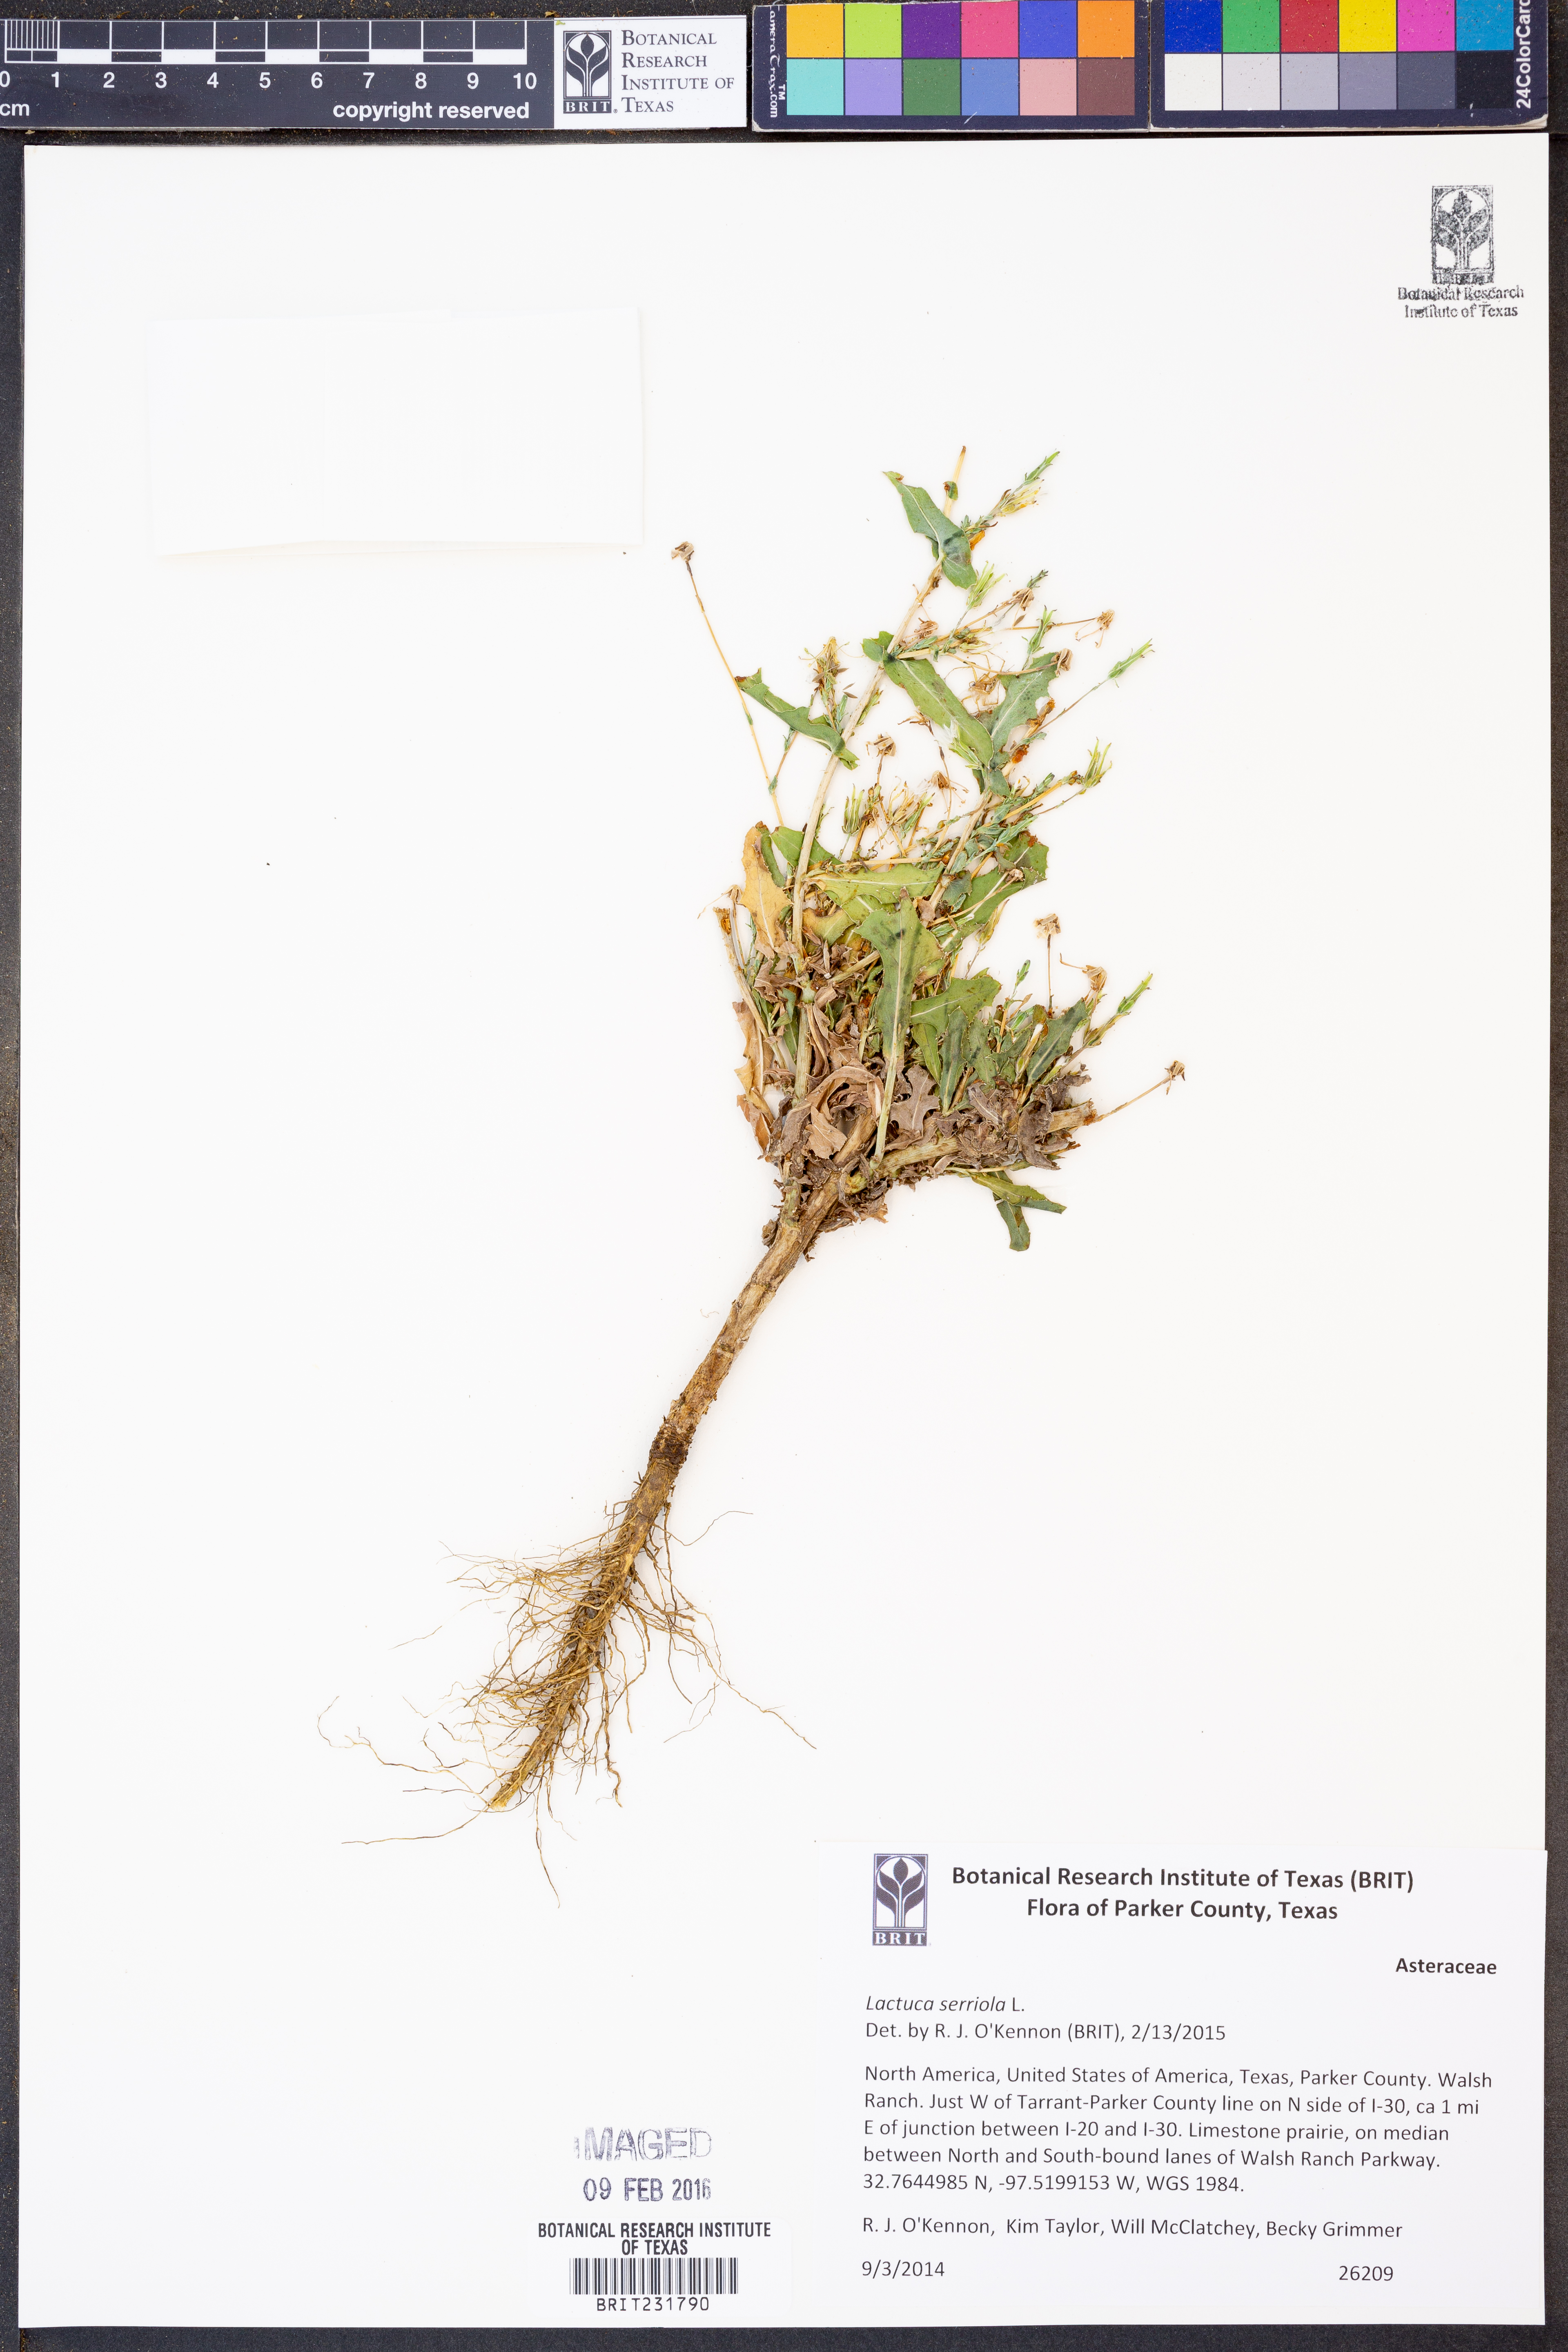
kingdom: Plantae
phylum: Tracheophyta
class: Magnoliopsida
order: Asterales
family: Asteraceae
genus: Lactuca
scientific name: Lactuca serriola
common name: Prickly lettuce
